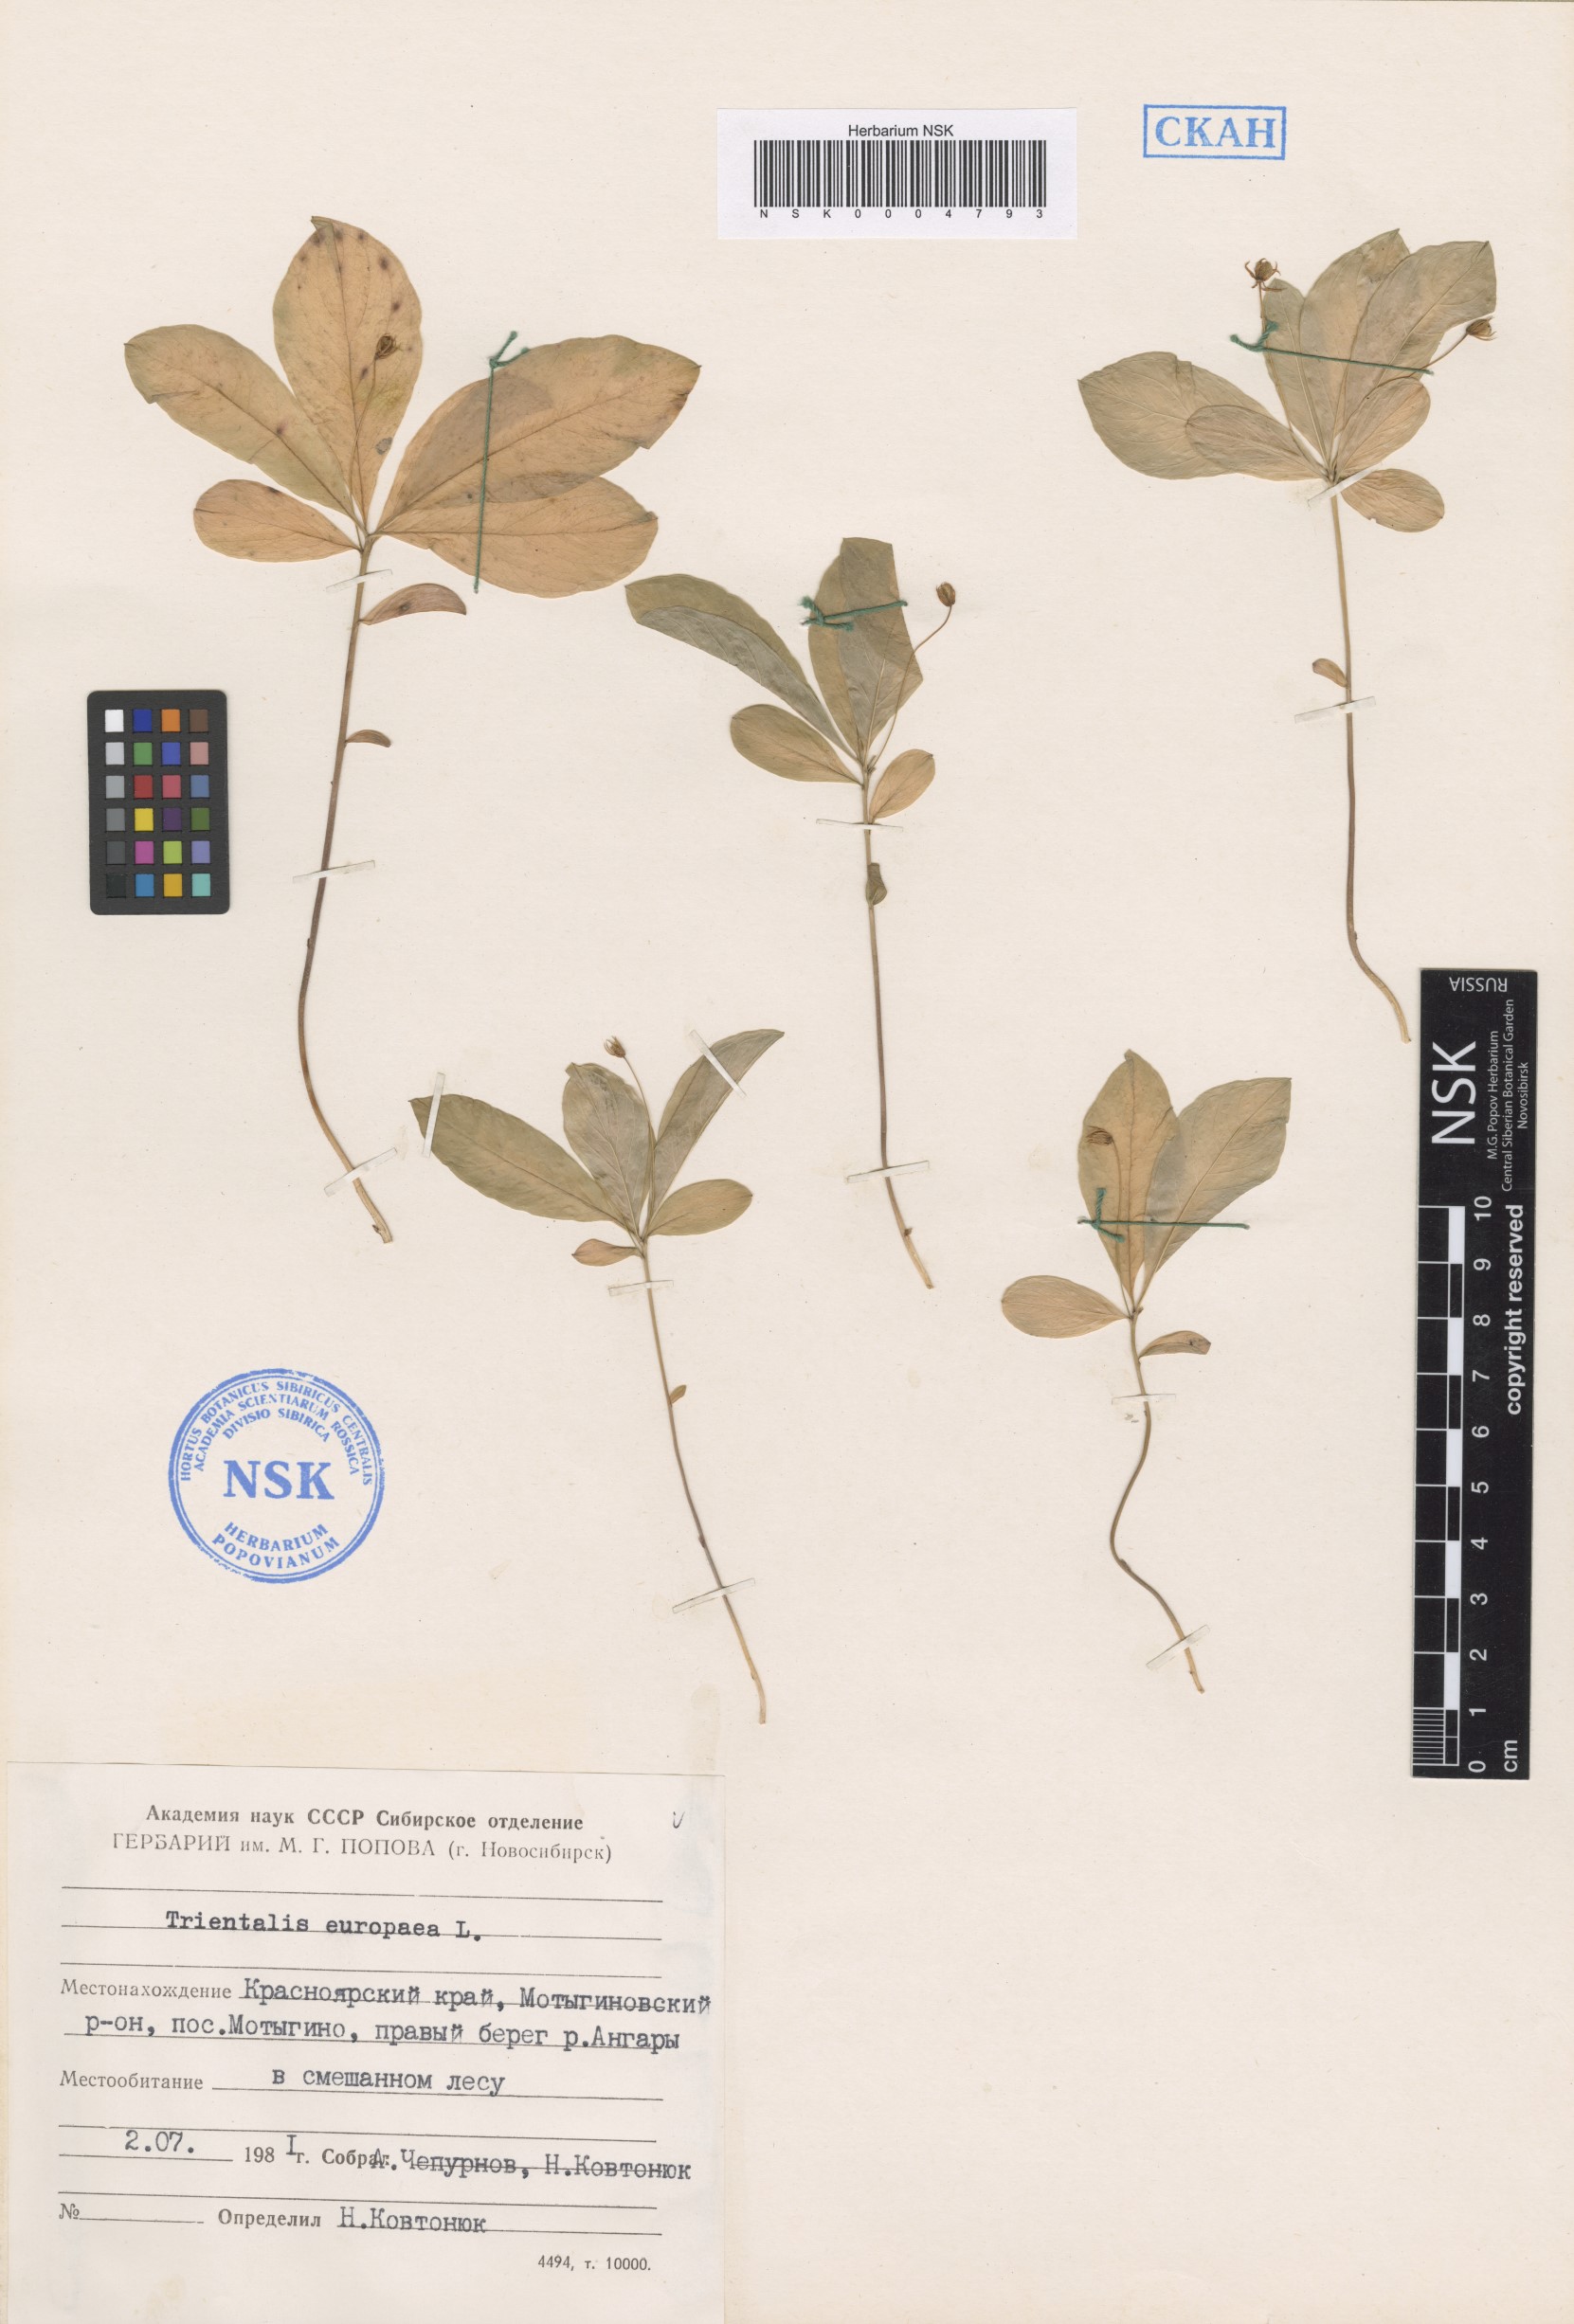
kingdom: Plantae
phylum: Tracheophyta
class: Magnoliopsida
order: Ericales
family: Primulaceae
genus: Lysimachia
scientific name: Lysimachia europaea
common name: Arctic starflower
